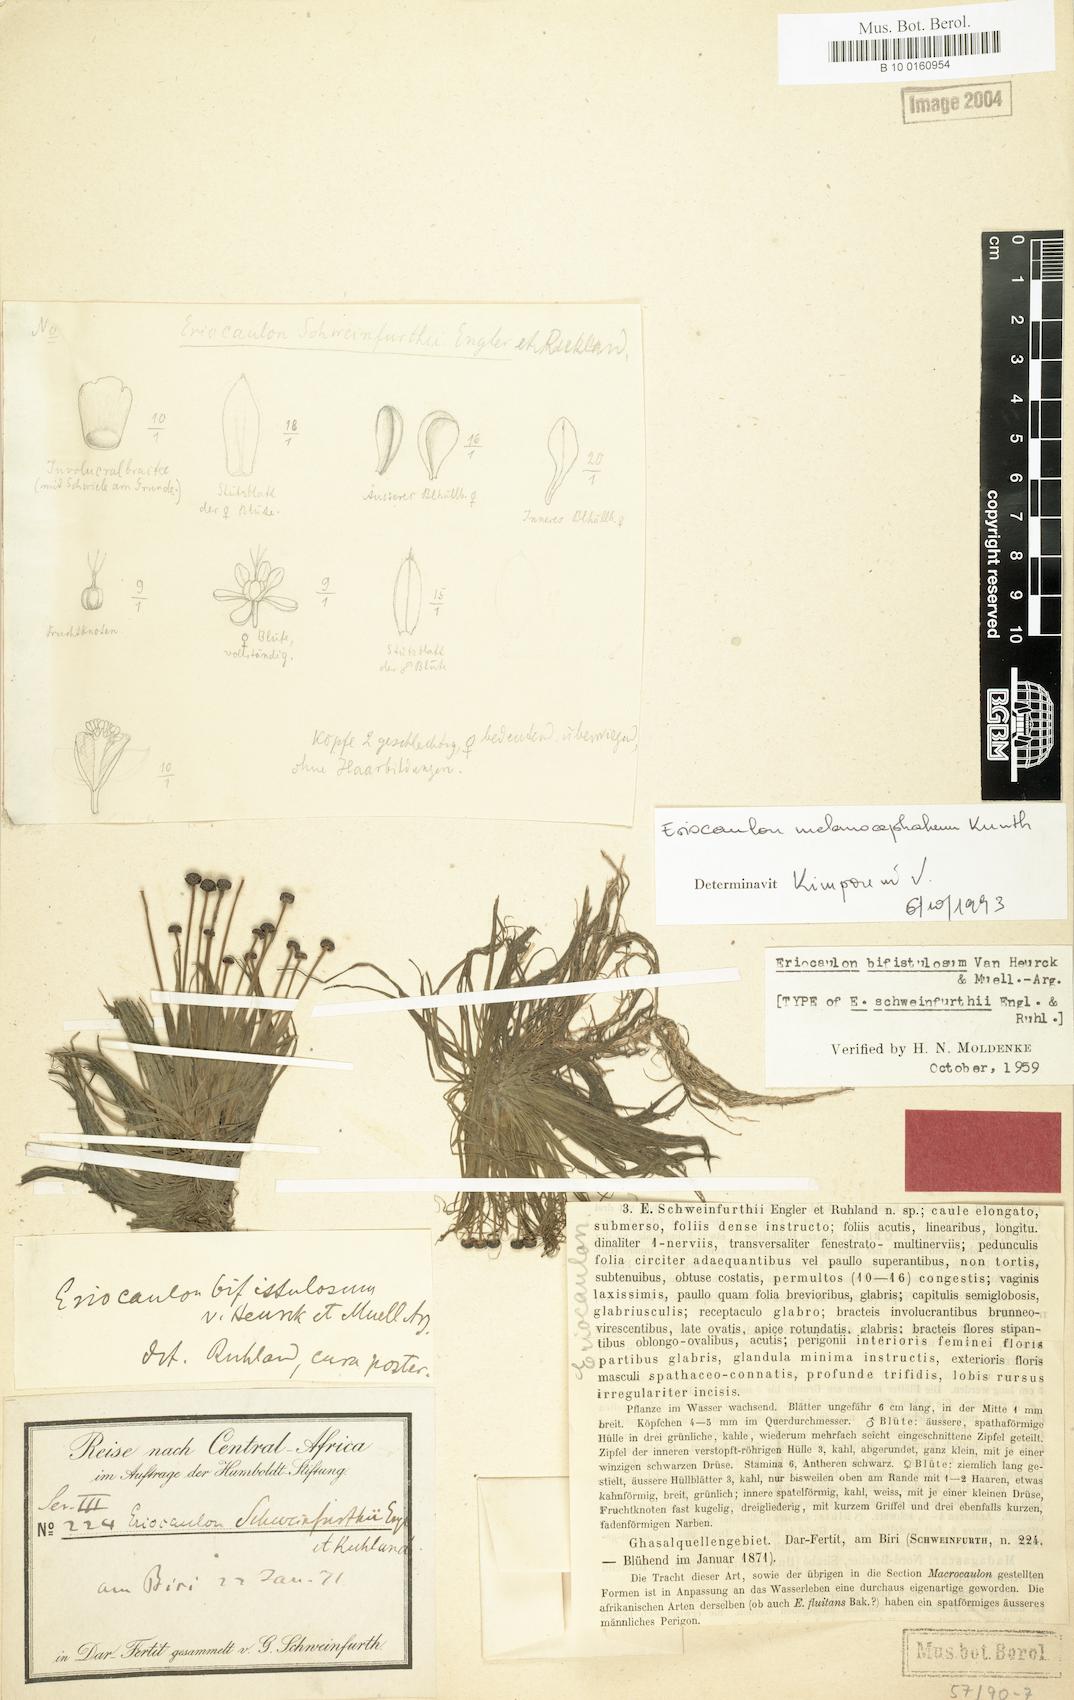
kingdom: Plantae
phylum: Tracheophyta
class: Liliopsida
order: Poales
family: Eriocaulaceae
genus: Eriocaulon
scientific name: Eriocaulon setaceum
